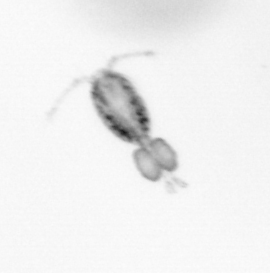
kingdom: Animalia
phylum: Arthropoda
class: Copepoda
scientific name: Copepoda
